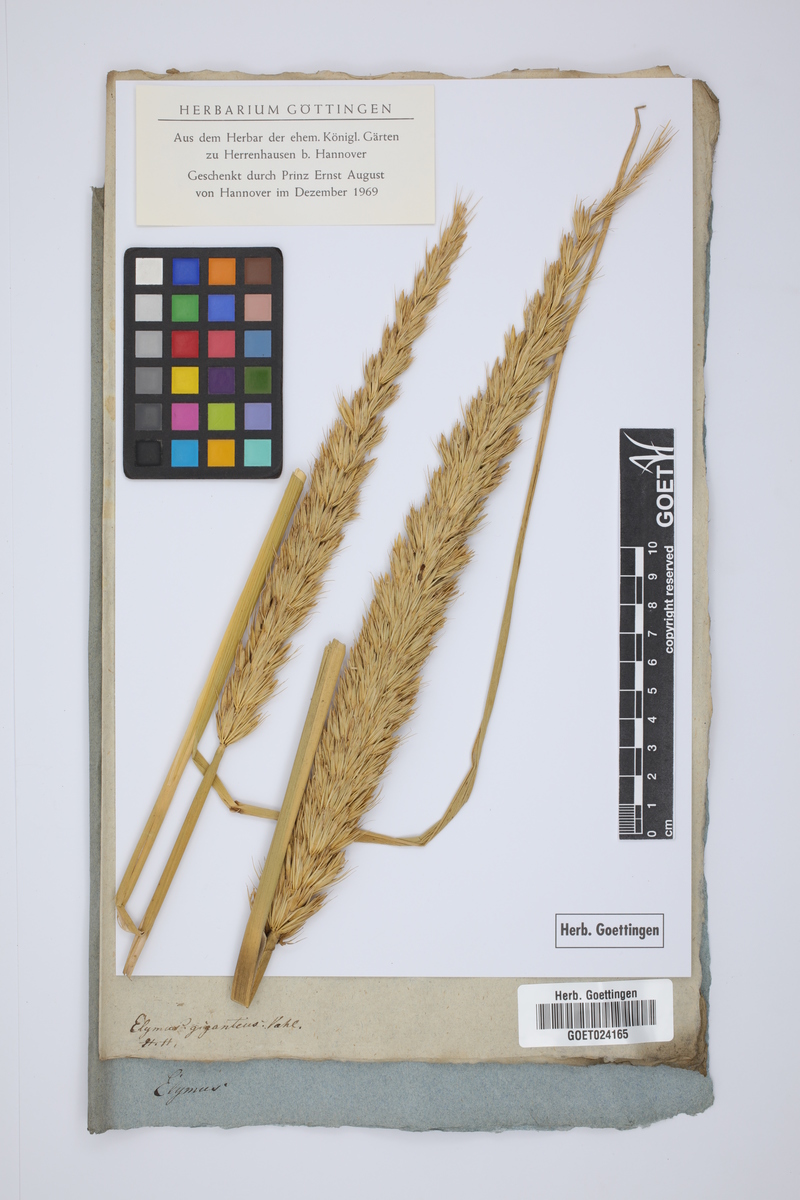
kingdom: Plantae
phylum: Tracheophyta
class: Liliopsida
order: Poales
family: Poaceae
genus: Leymus
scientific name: Leymus racemosus
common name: Mammoth wildrye
